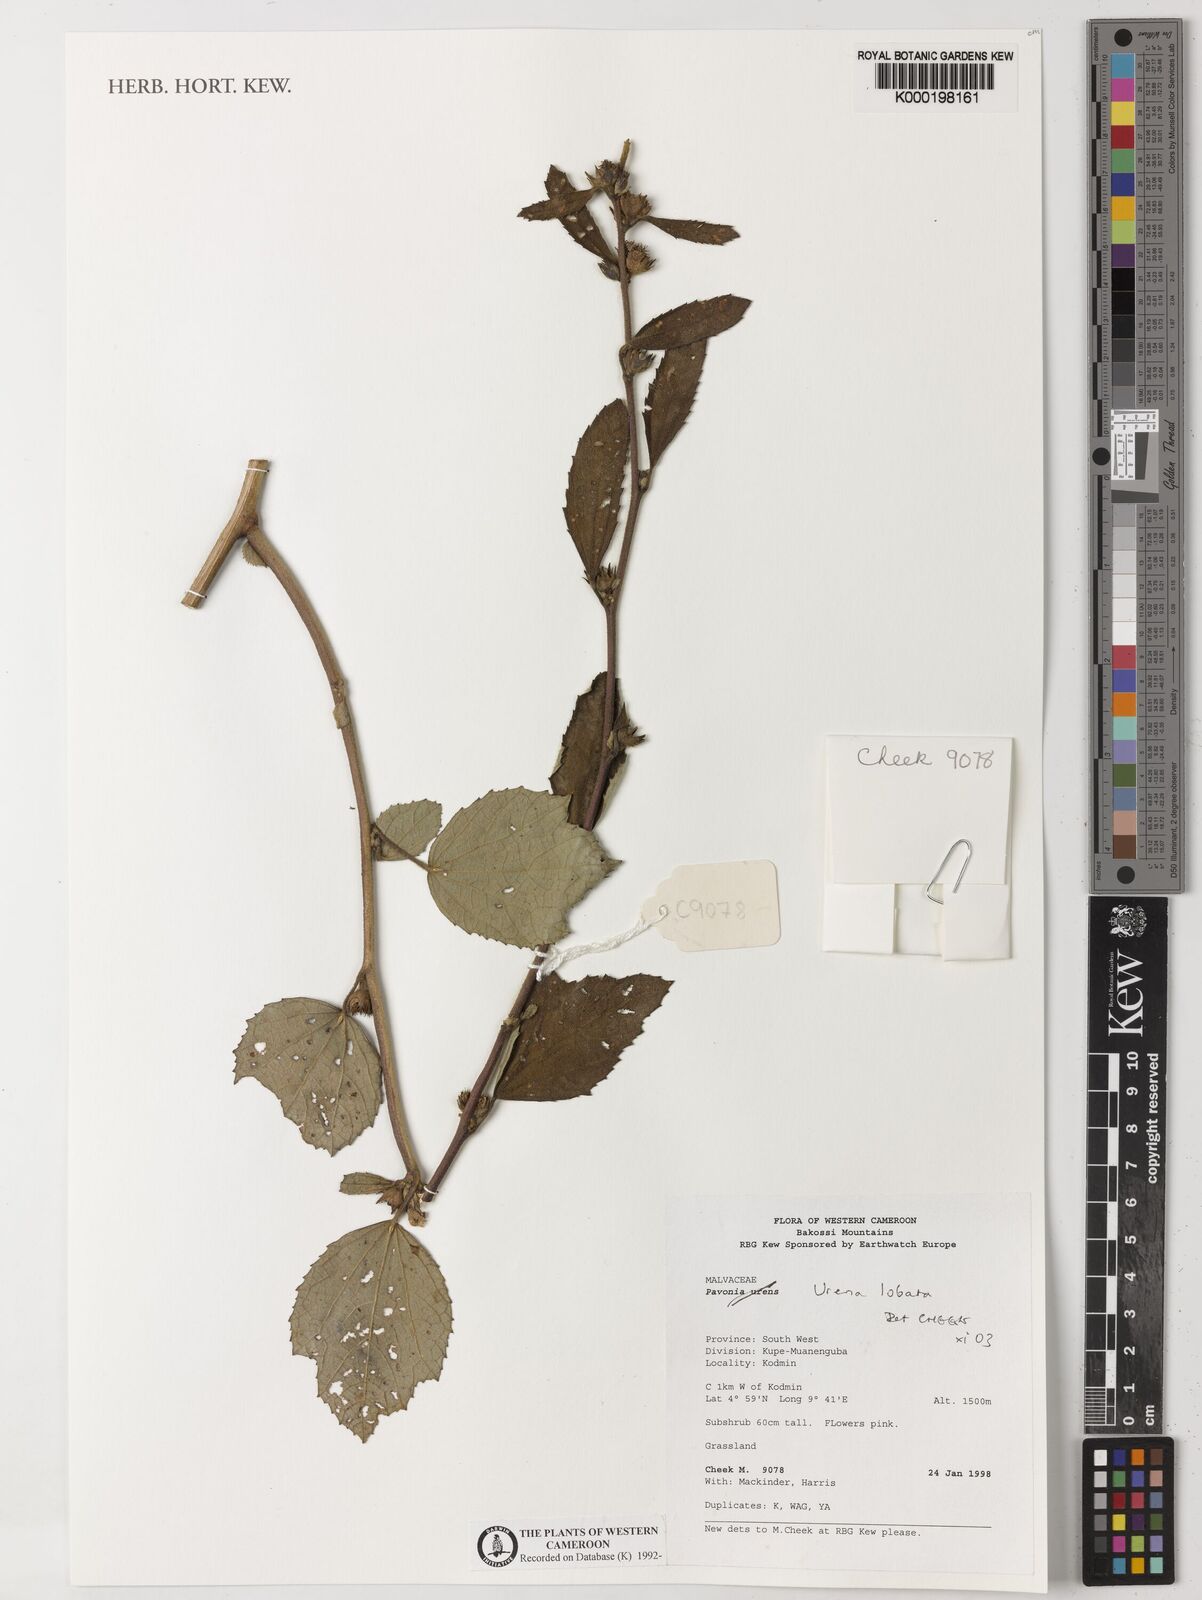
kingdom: Plantae
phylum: Tracheophyta
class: Magnoliopsida
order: Malvales
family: Malvaceae
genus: Urena
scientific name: Urena lobata
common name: Caesarweed
